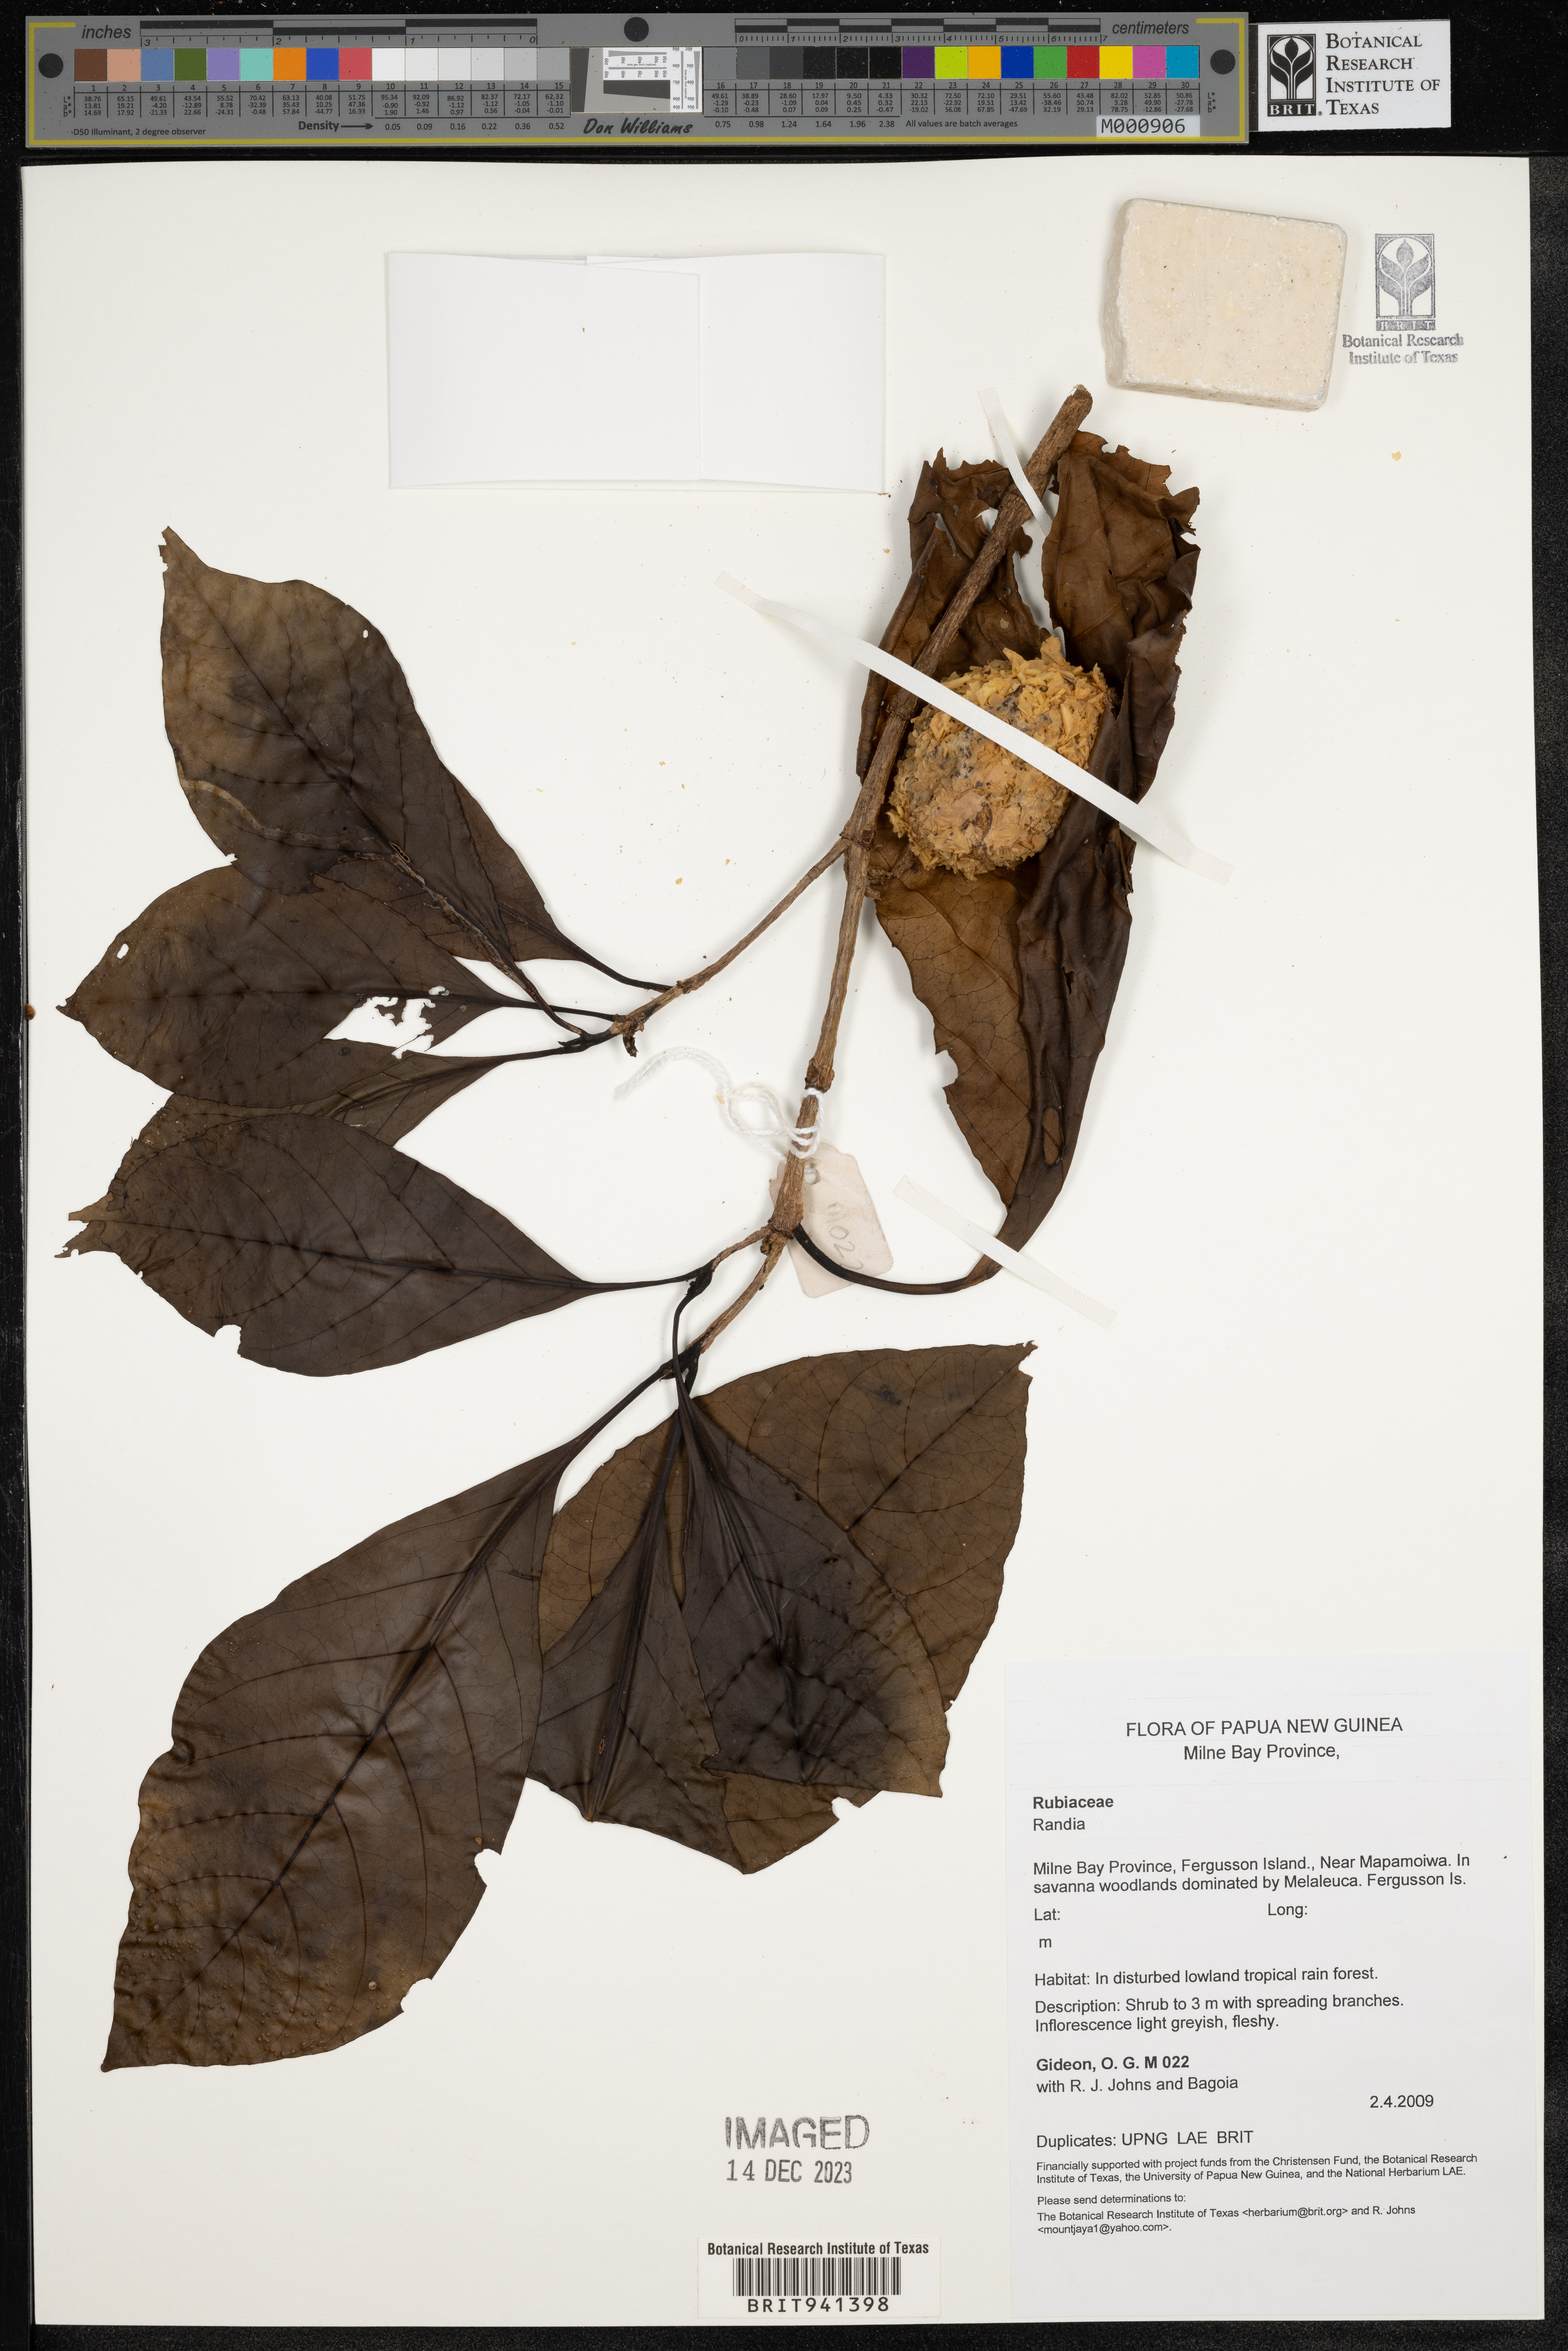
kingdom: Plantae
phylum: Tracheophyta
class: Magnoliopsida
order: Gentianales
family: Rubiaceae
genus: Randia
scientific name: Randia
